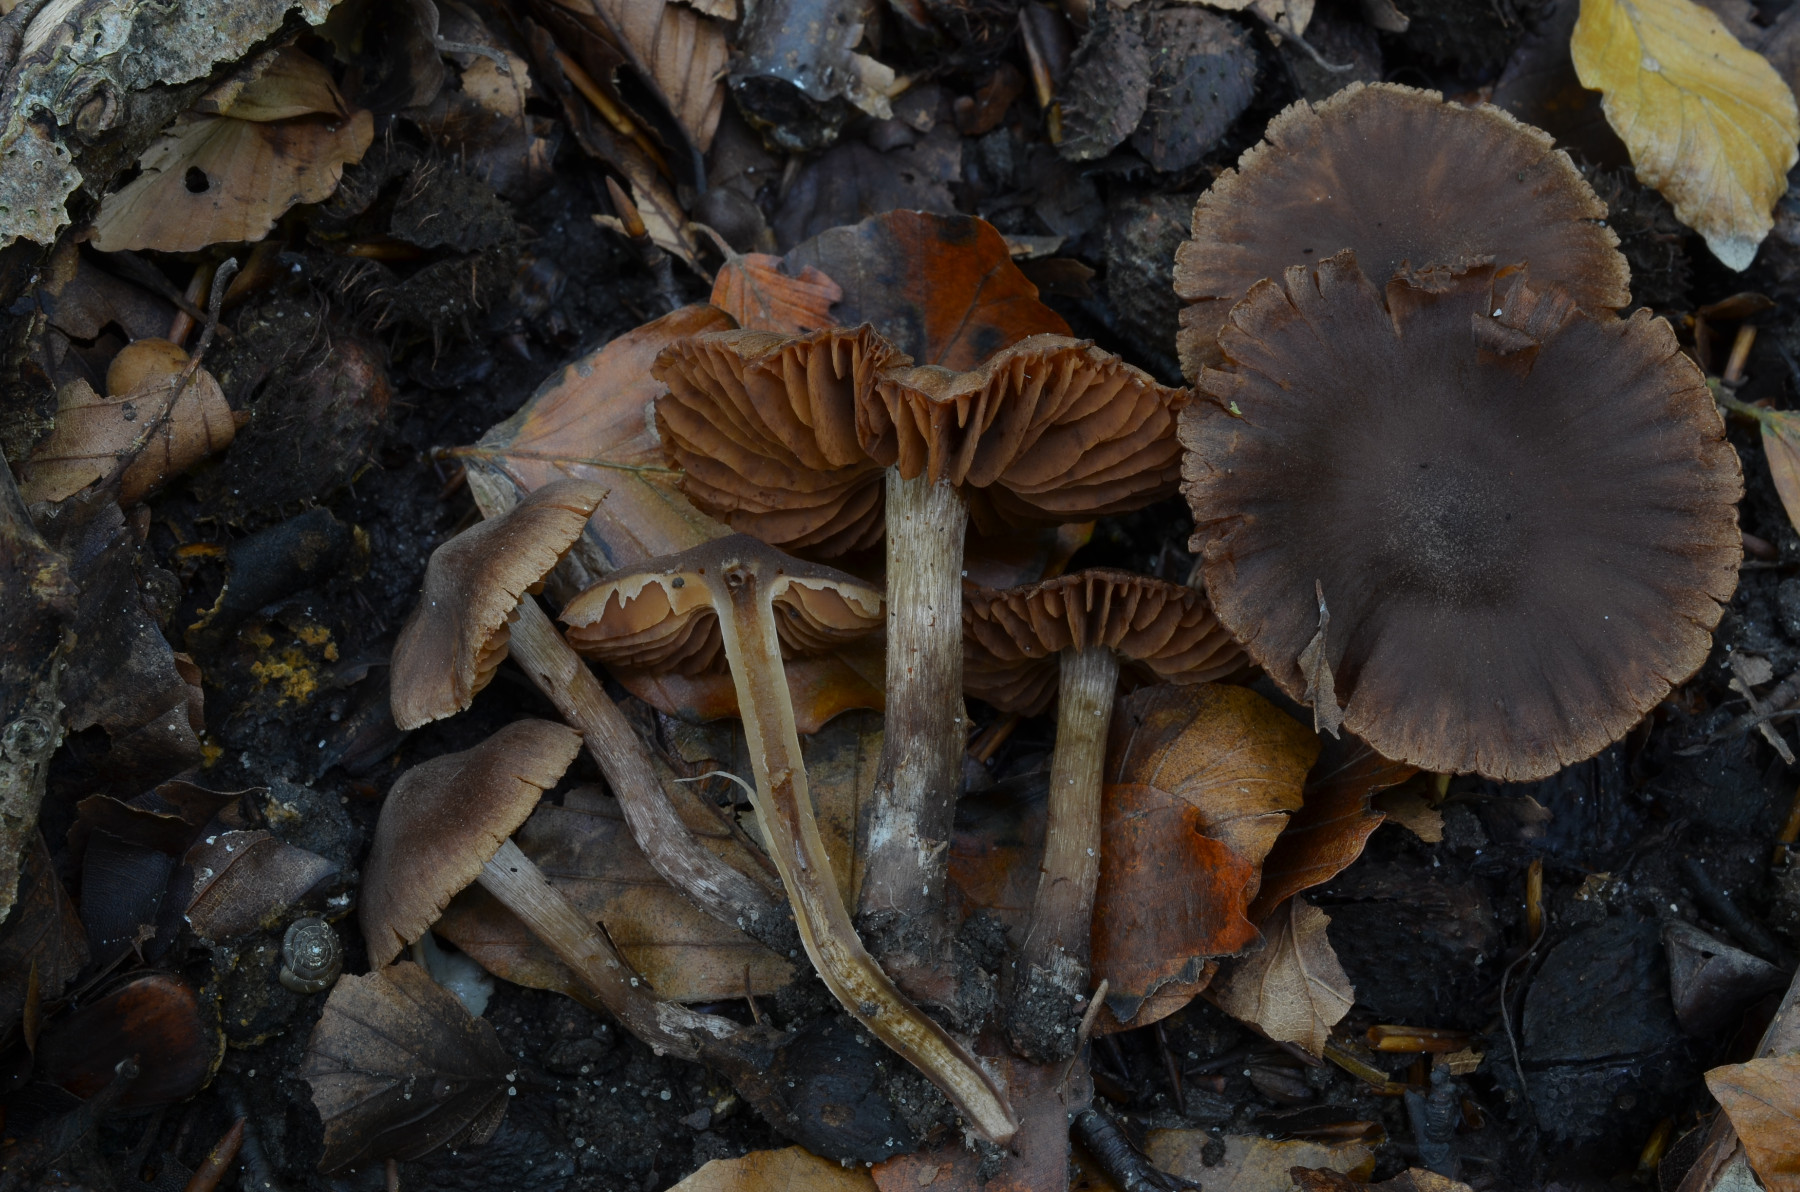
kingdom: Fungi
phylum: Basidiomycota
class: Agaricomycetes
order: Agaricales
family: Cortinariaceae
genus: Cortinarius
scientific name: Cortinarius rubrocinctus
